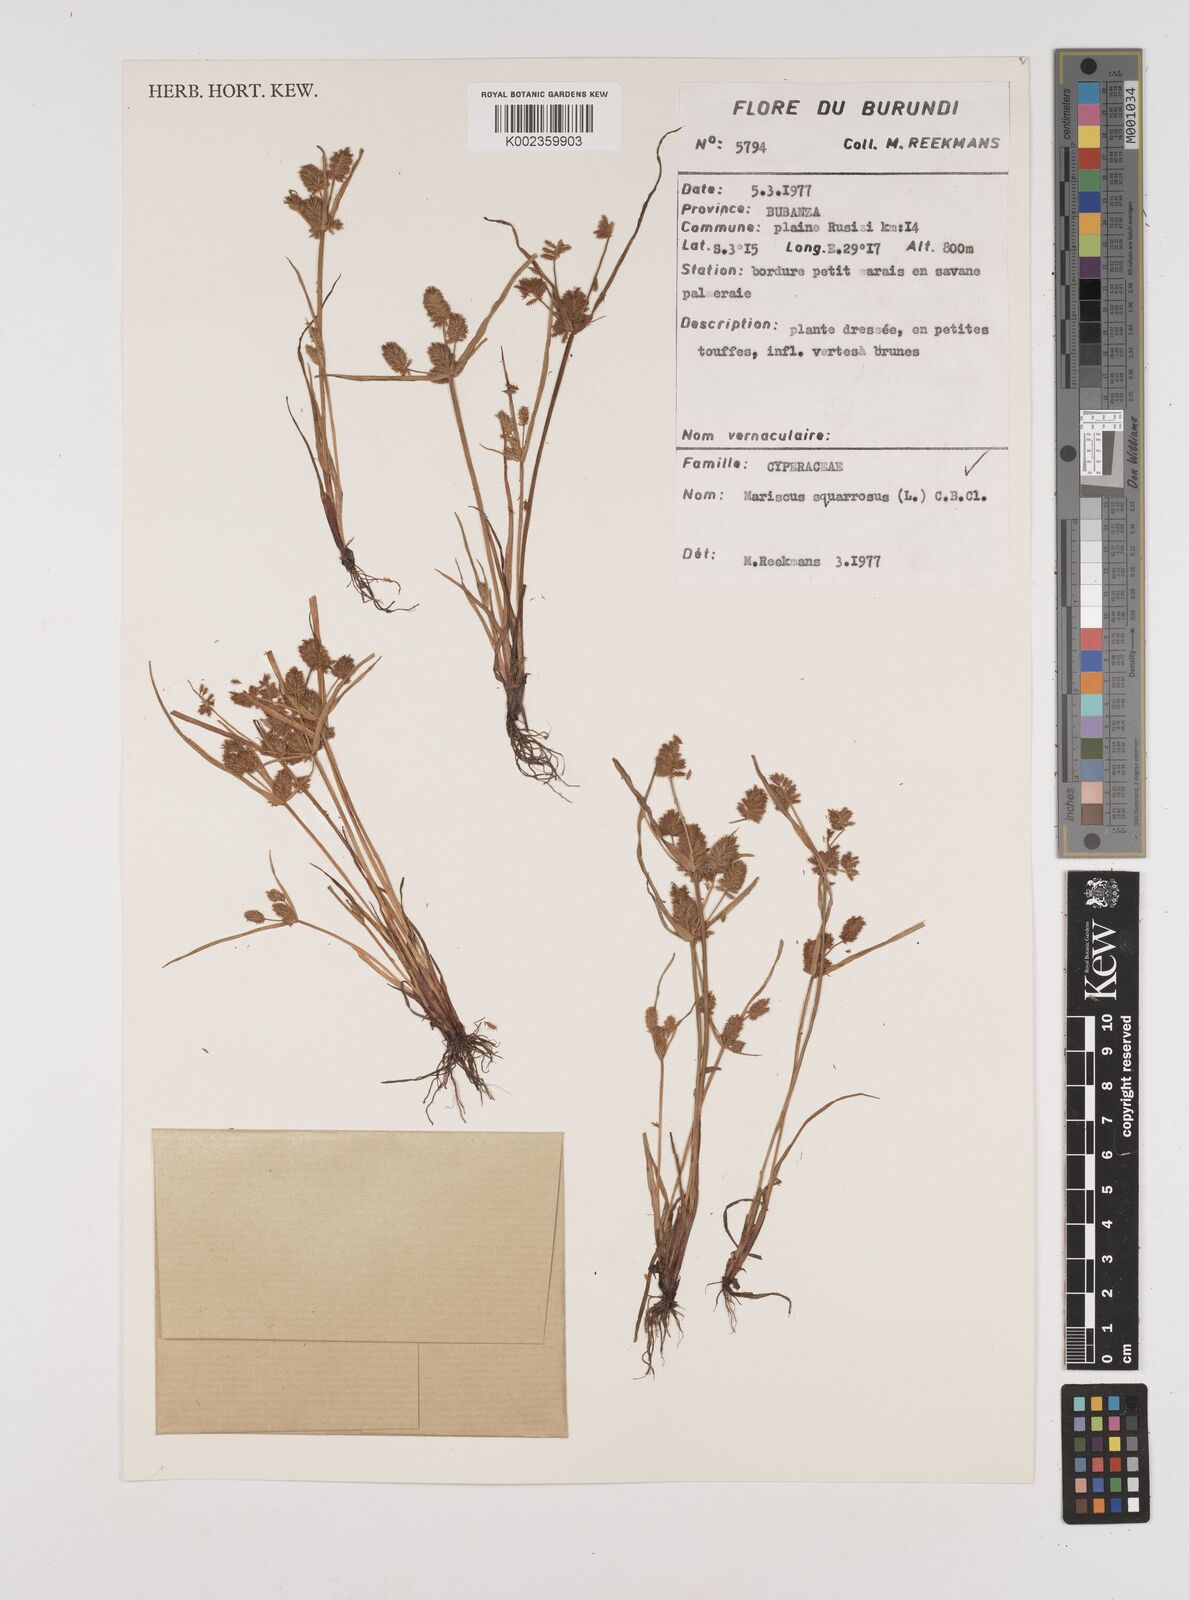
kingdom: Plantae
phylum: Tracheophyta
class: Liliopsida
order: Poales
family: Cyperaceae
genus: Cyperus
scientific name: Cyperus squarrosus
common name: Awned cyperus
